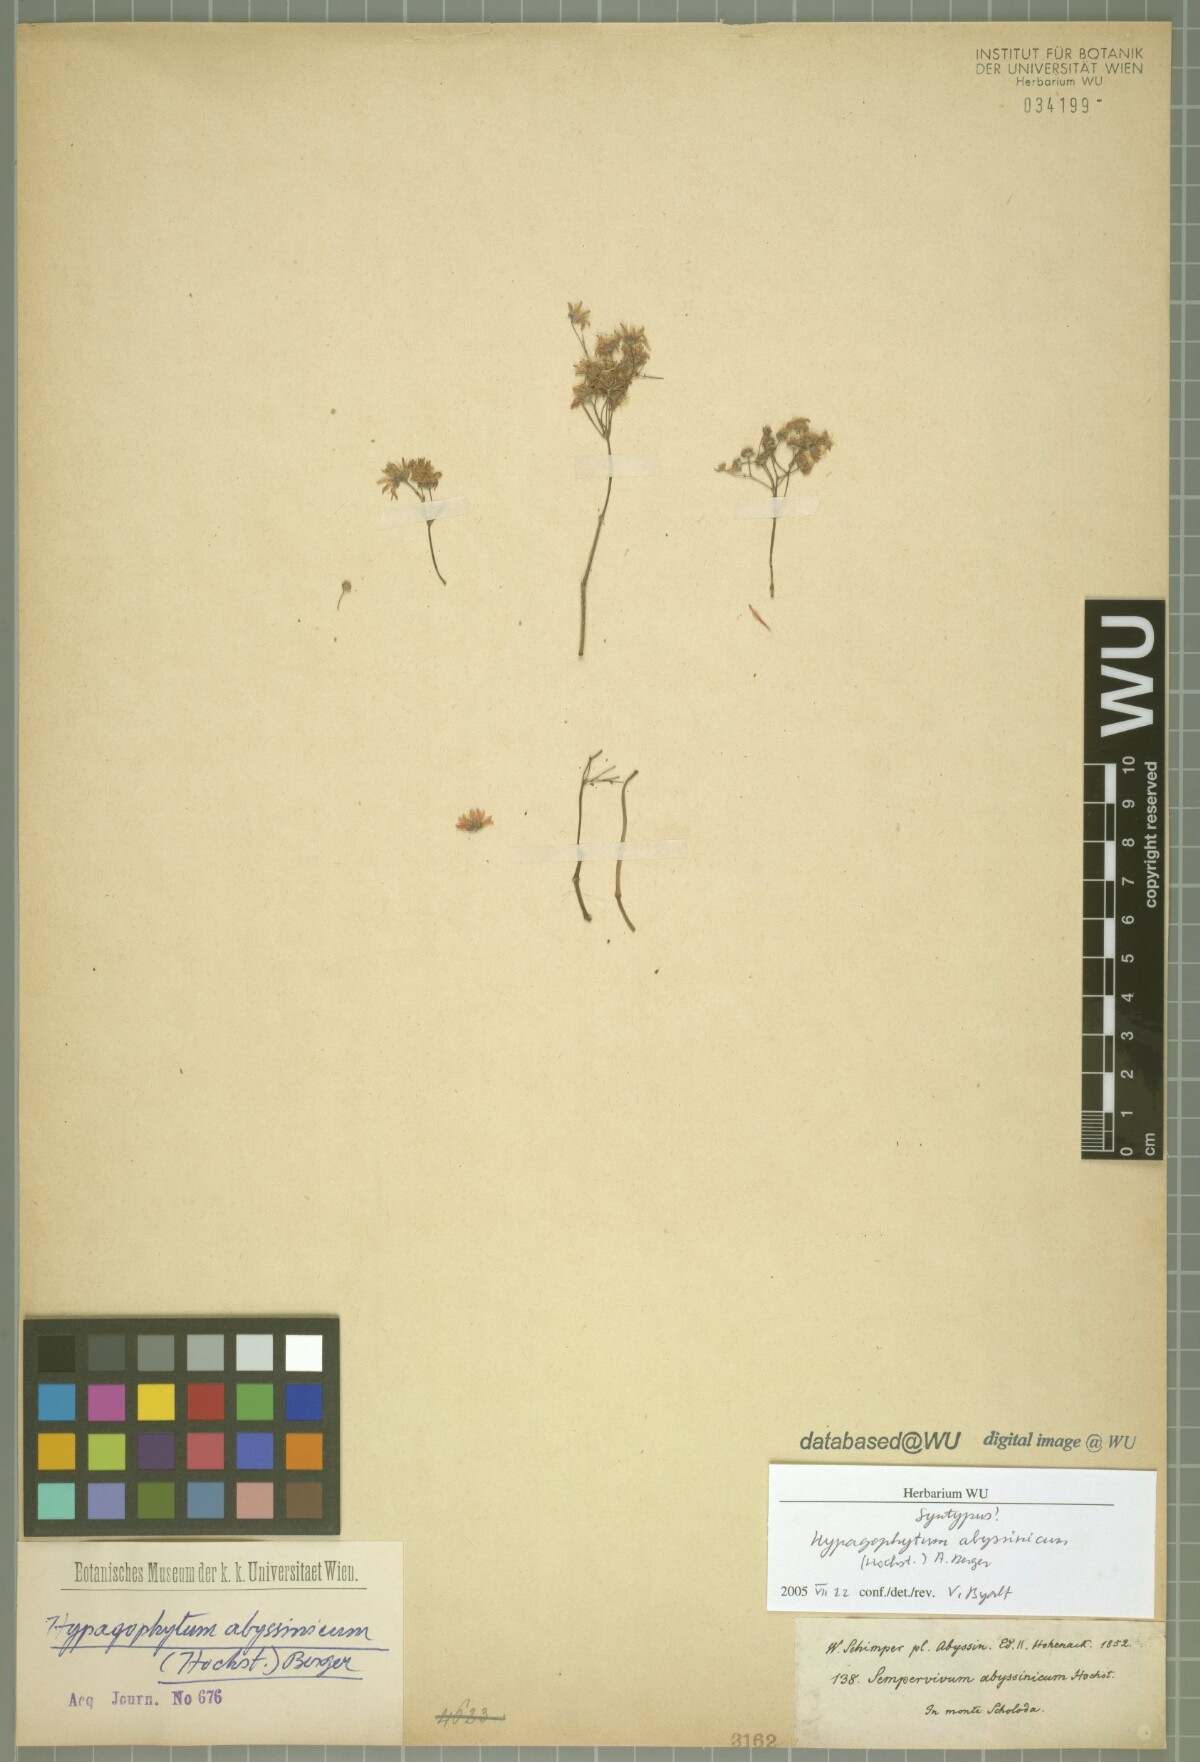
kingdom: Plantae
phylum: Tracheophyta
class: Magnoliopsida
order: Saxifragales
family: Crassulaceae
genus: Hypagophytum
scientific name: Hypagophytum abyssinicum
